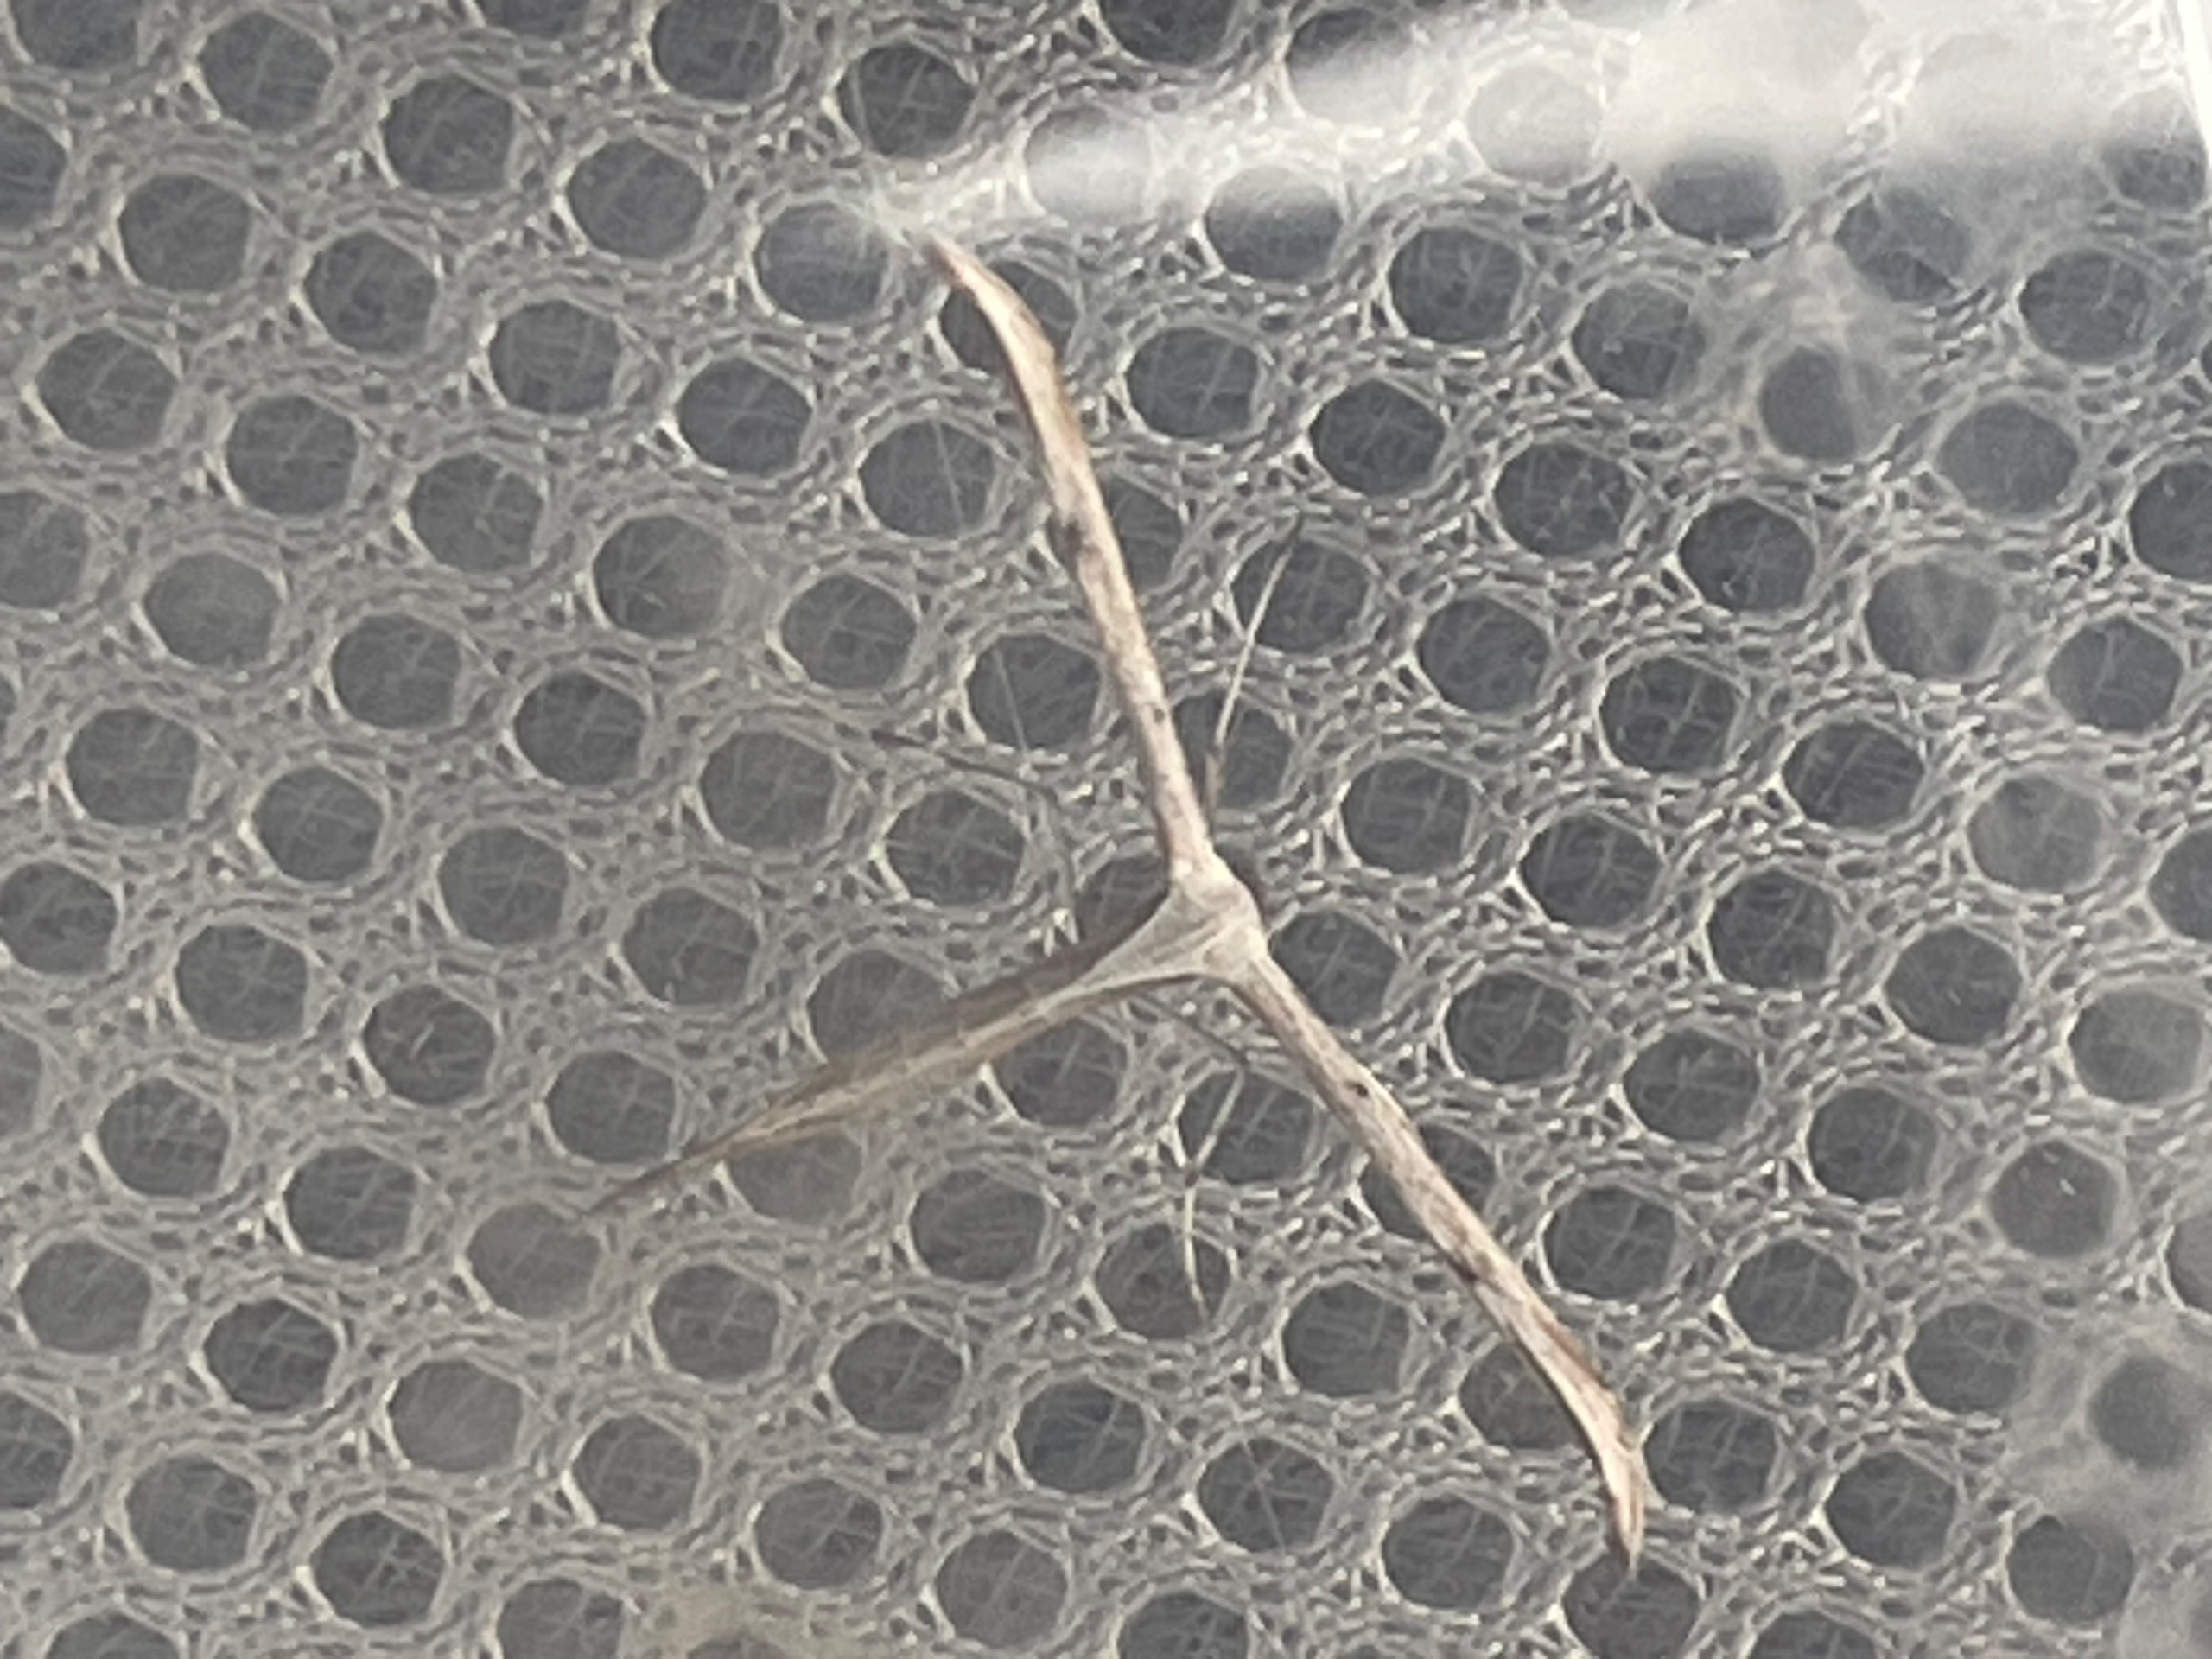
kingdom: Animalia
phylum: Arthropoda
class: Insecta
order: Lepidoptera
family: Pterophoridae
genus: Emmelina
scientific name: Emmelina monodactyla
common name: Snerlefjermøl
